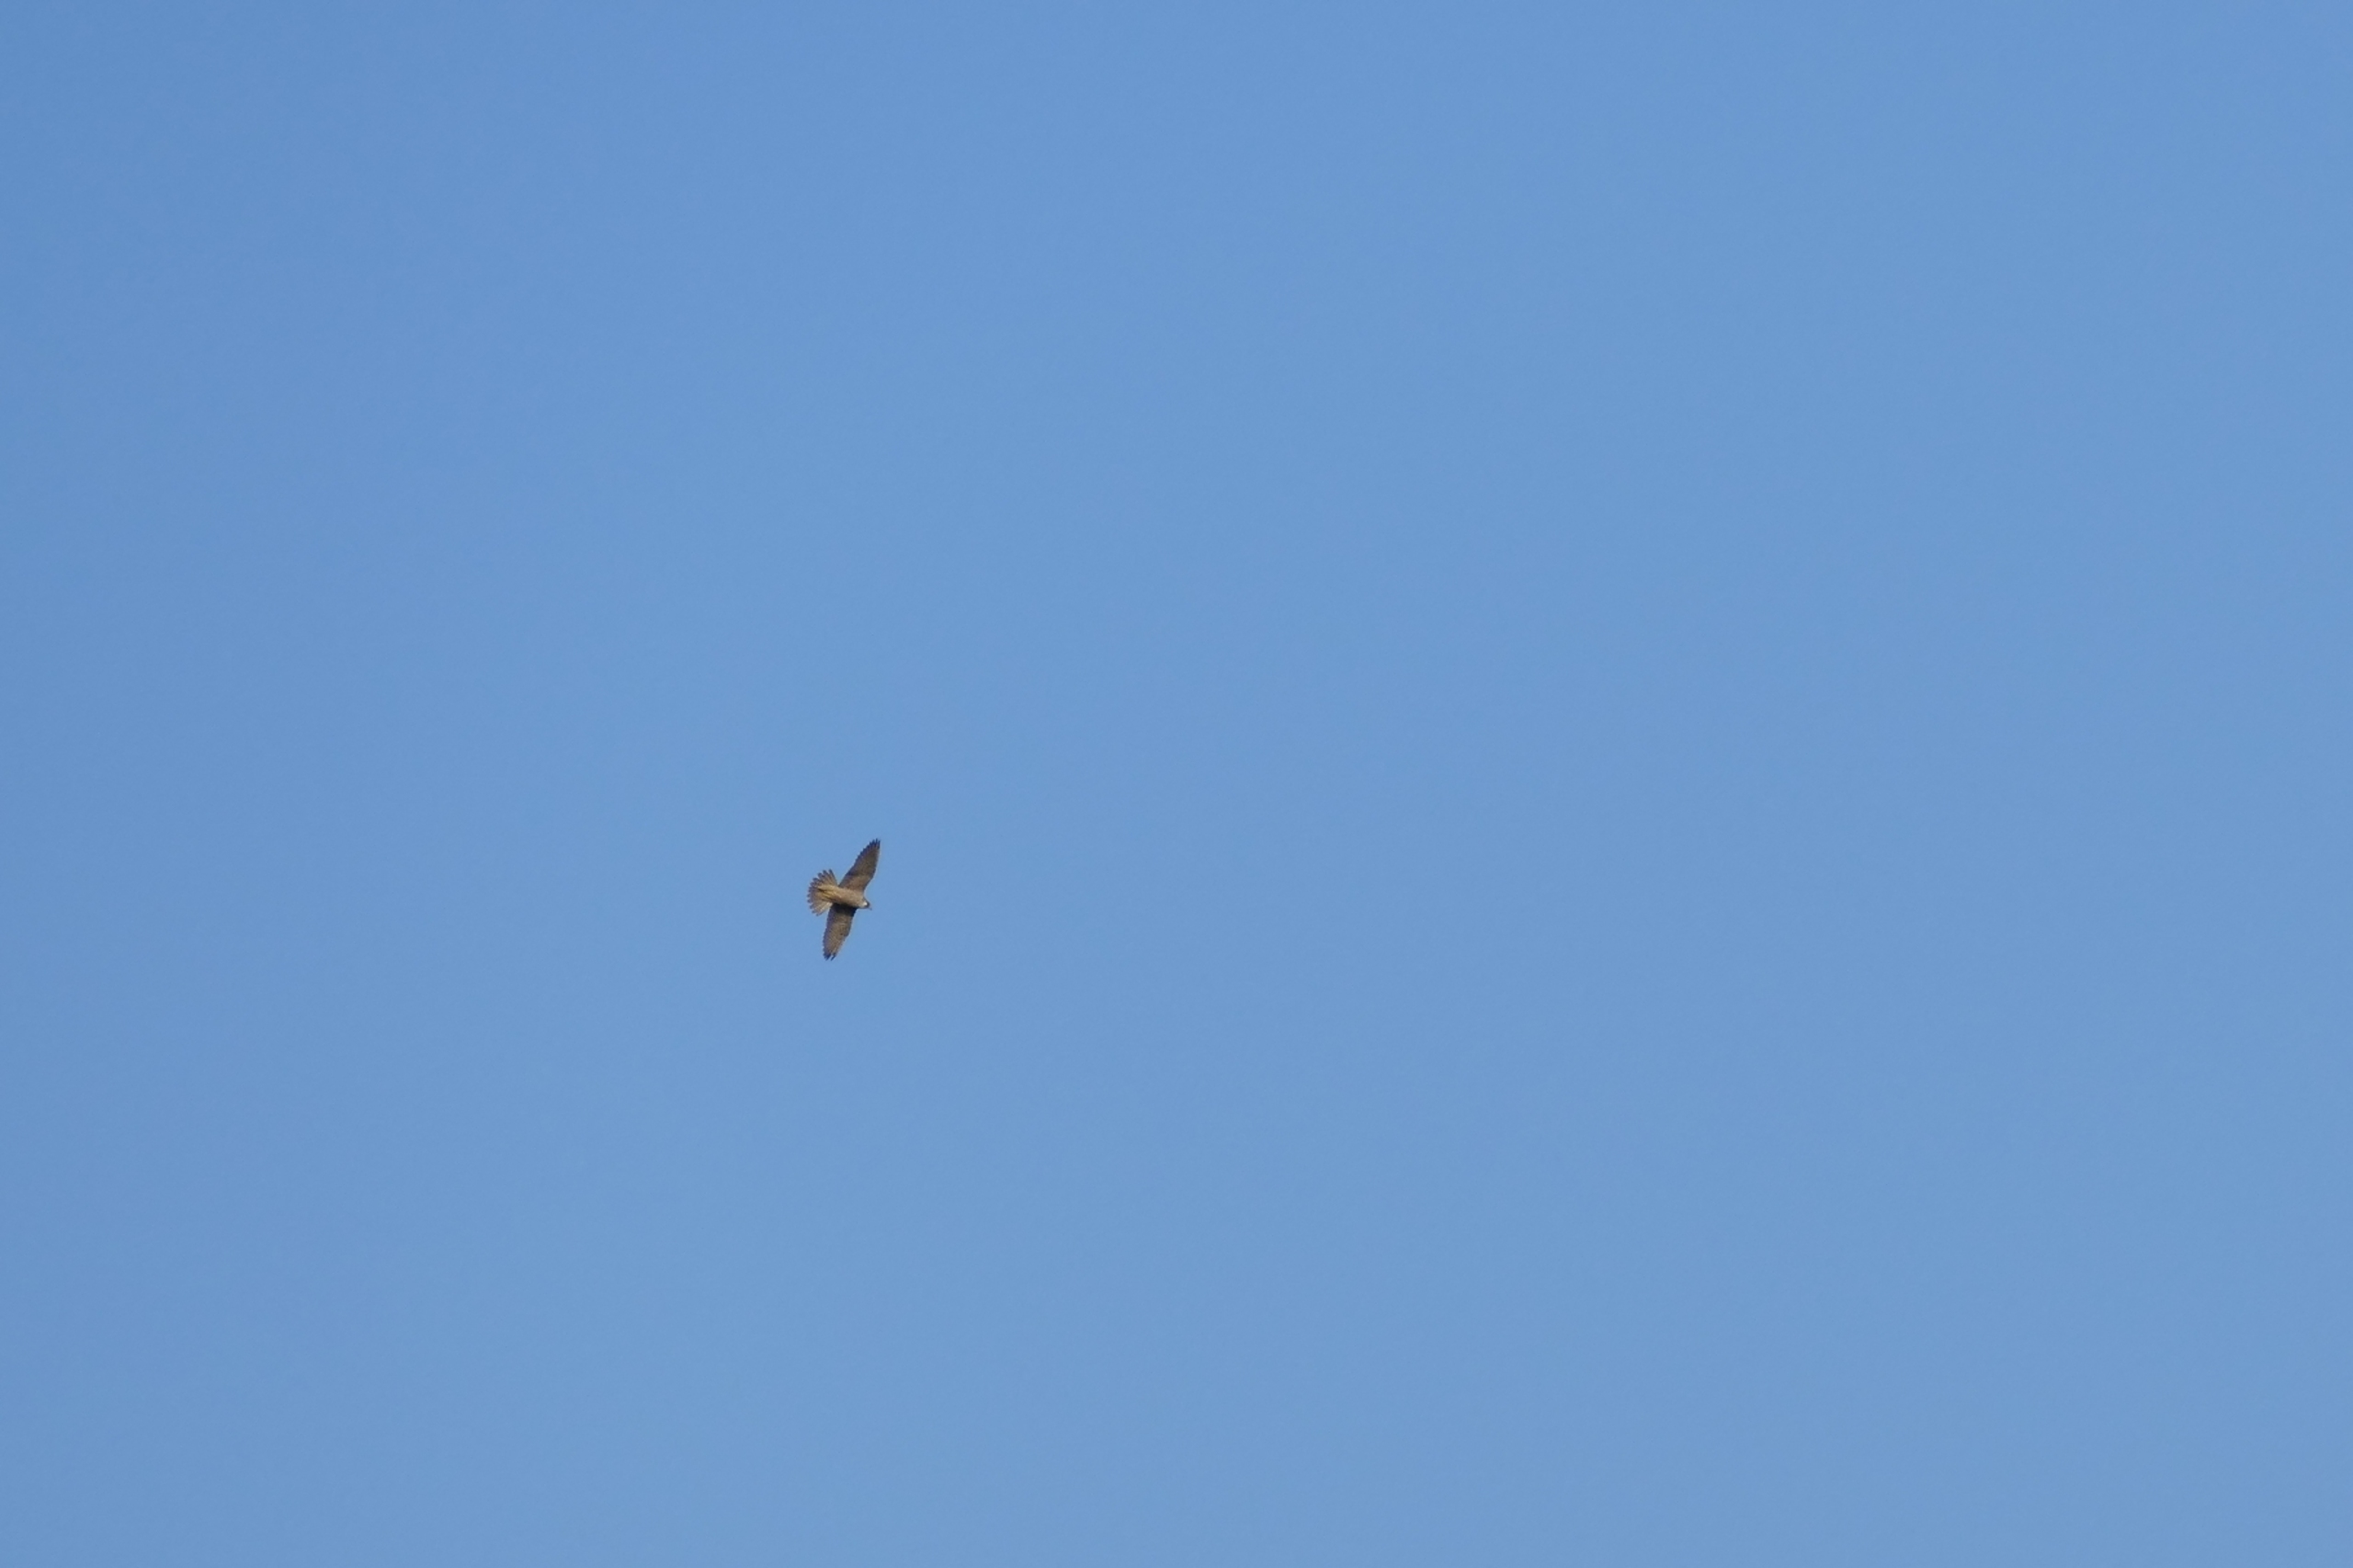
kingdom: Animalia
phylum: Chordata
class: Aves
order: Falconiformes
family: Falconidae
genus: Falco
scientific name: Falco peregrinus
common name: Vandrefalk
